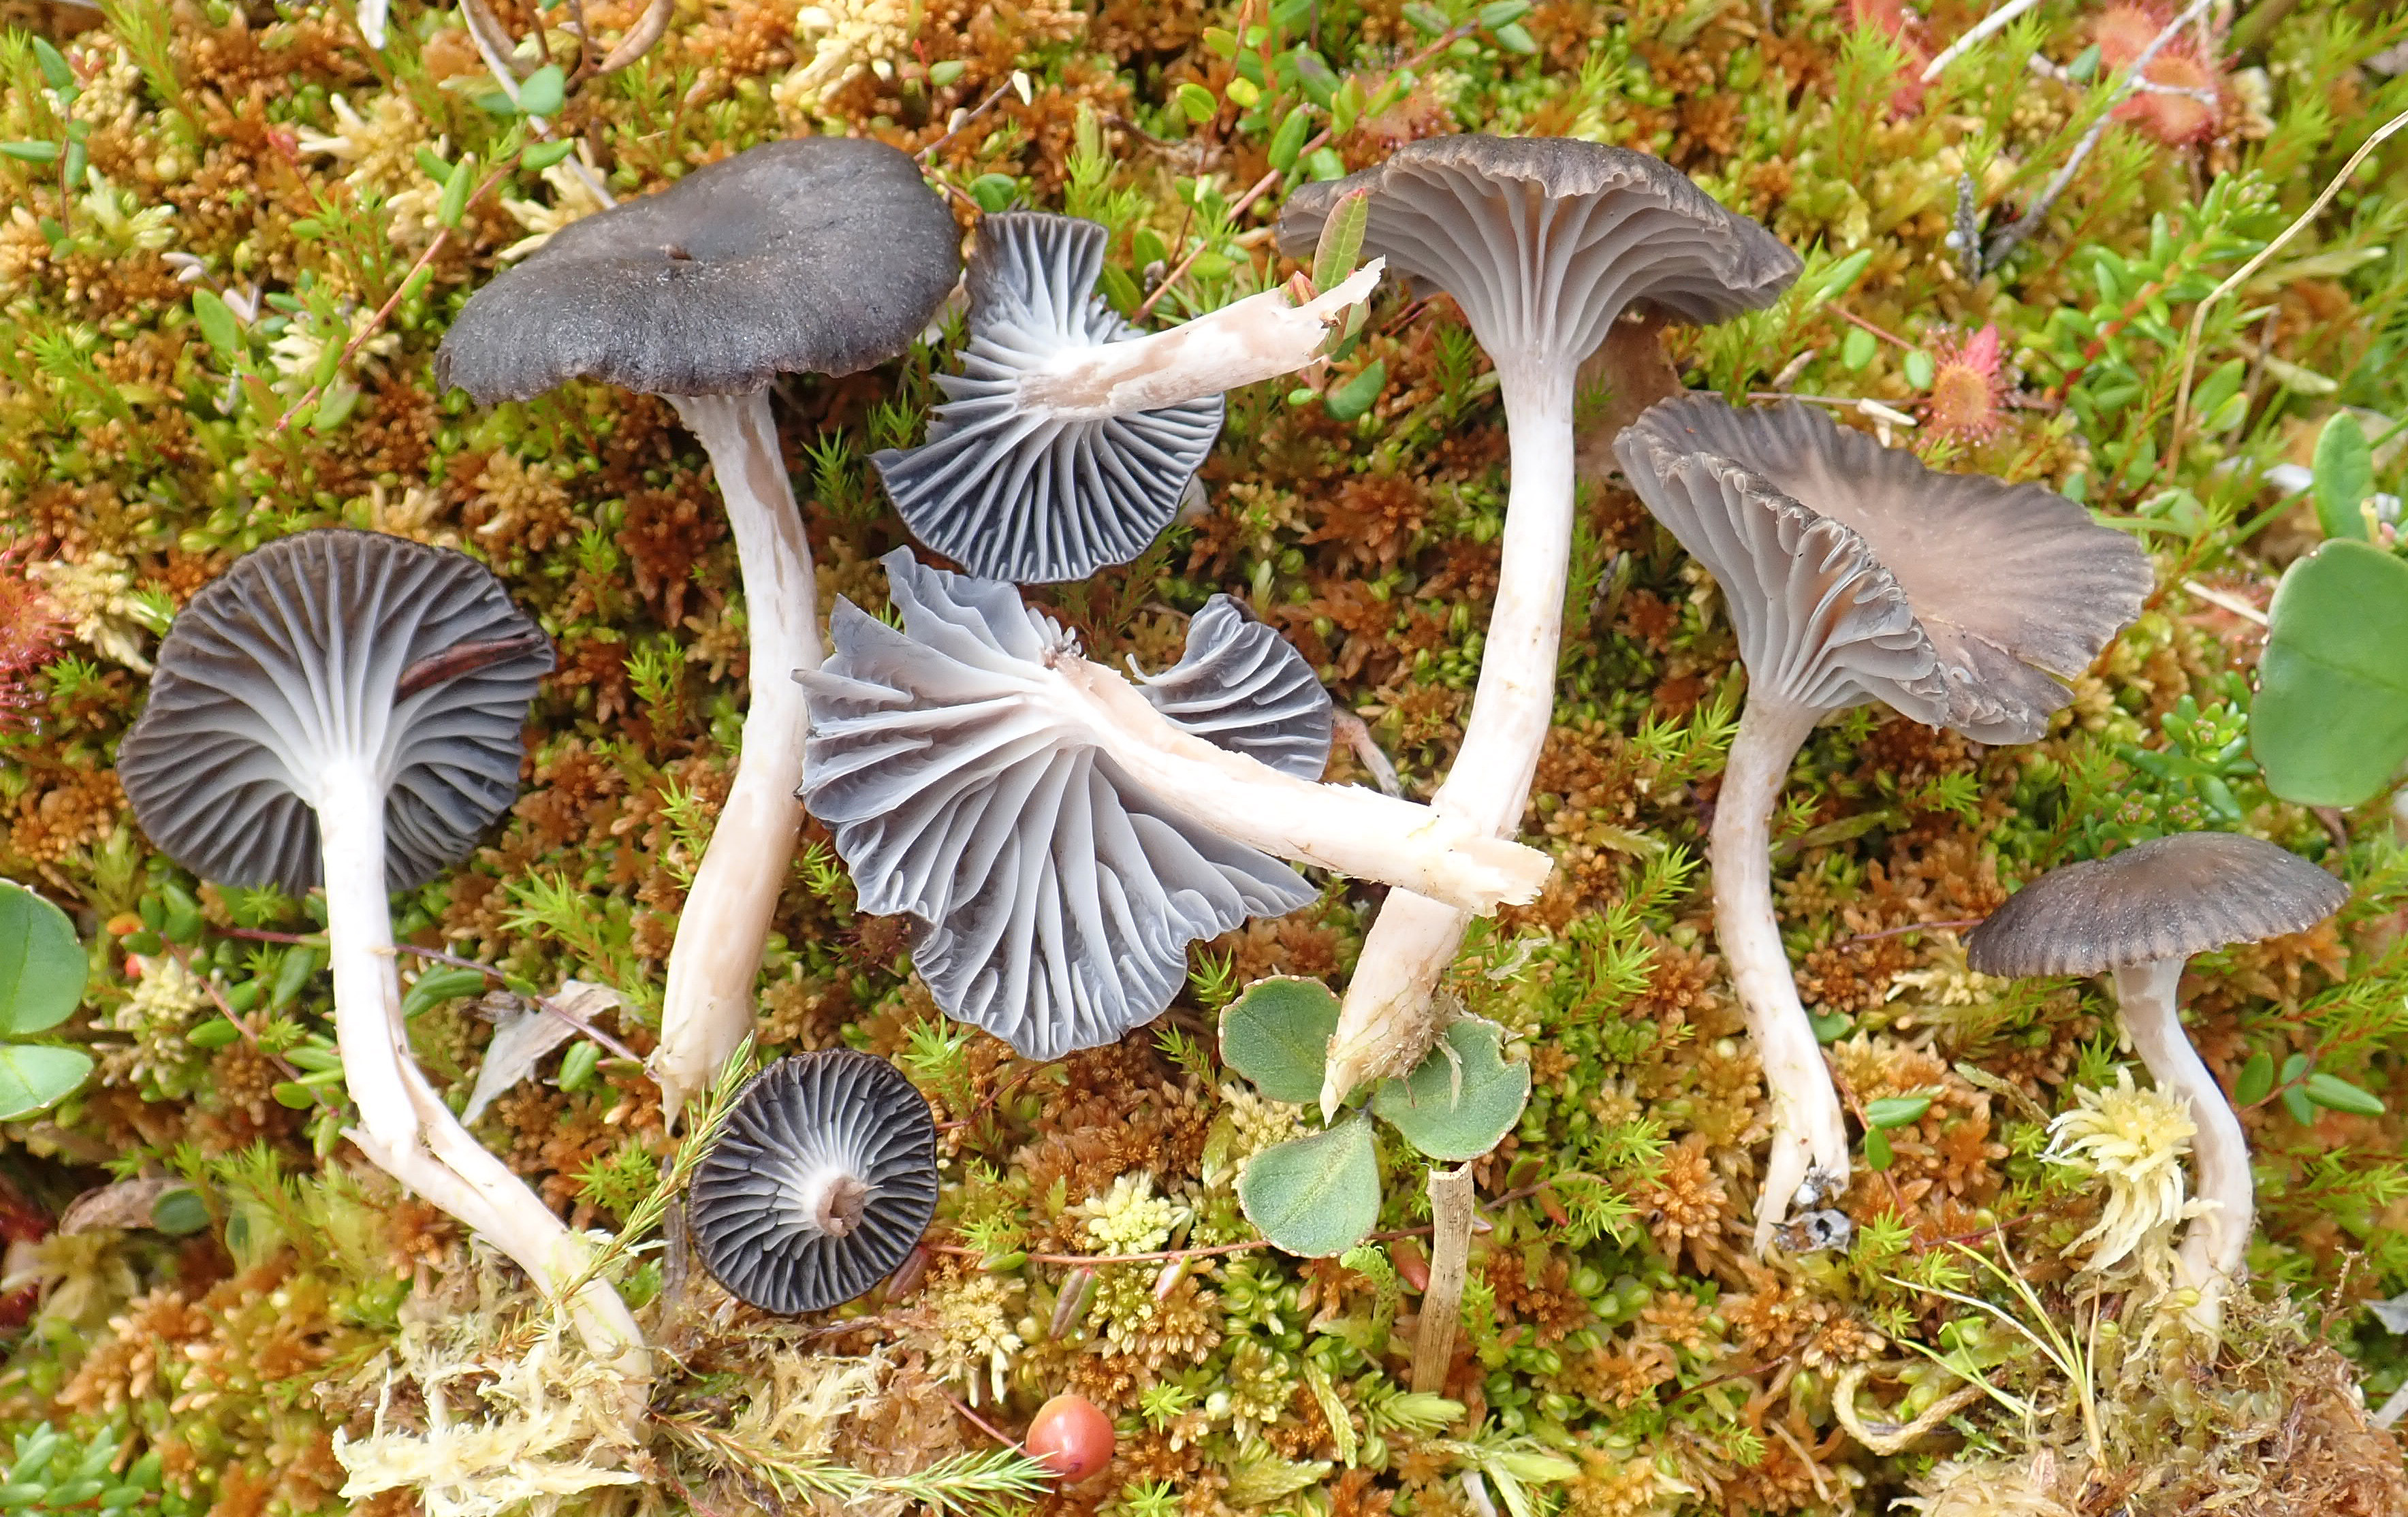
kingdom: Fungi
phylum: Basidiomycota
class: Agaricomycetes
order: Agaricales
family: Hygrophoraceae
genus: Cuphophyllus
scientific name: Cuphophyllus lacmus
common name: Grey waxcap
